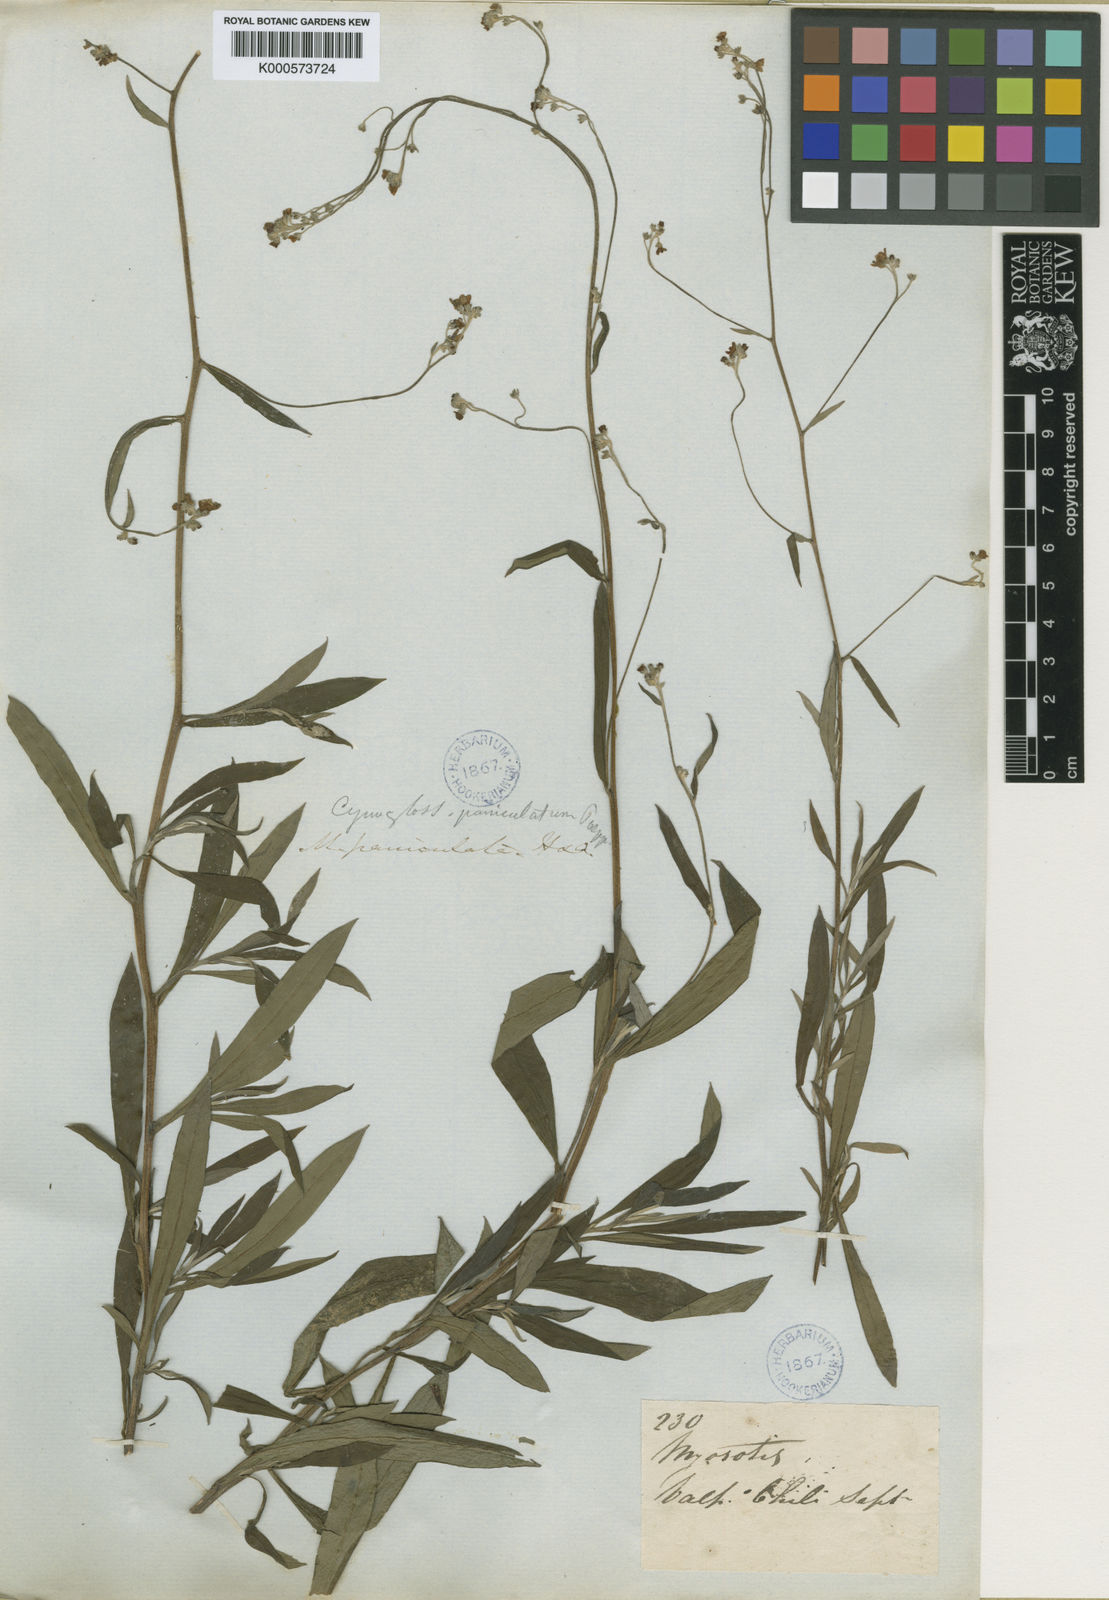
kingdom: Plantae
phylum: Tracheophyta
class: Magnoliopsida
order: Boraginales
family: Boraginaceae
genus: Cynoglossum
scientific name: Cynoglossum
